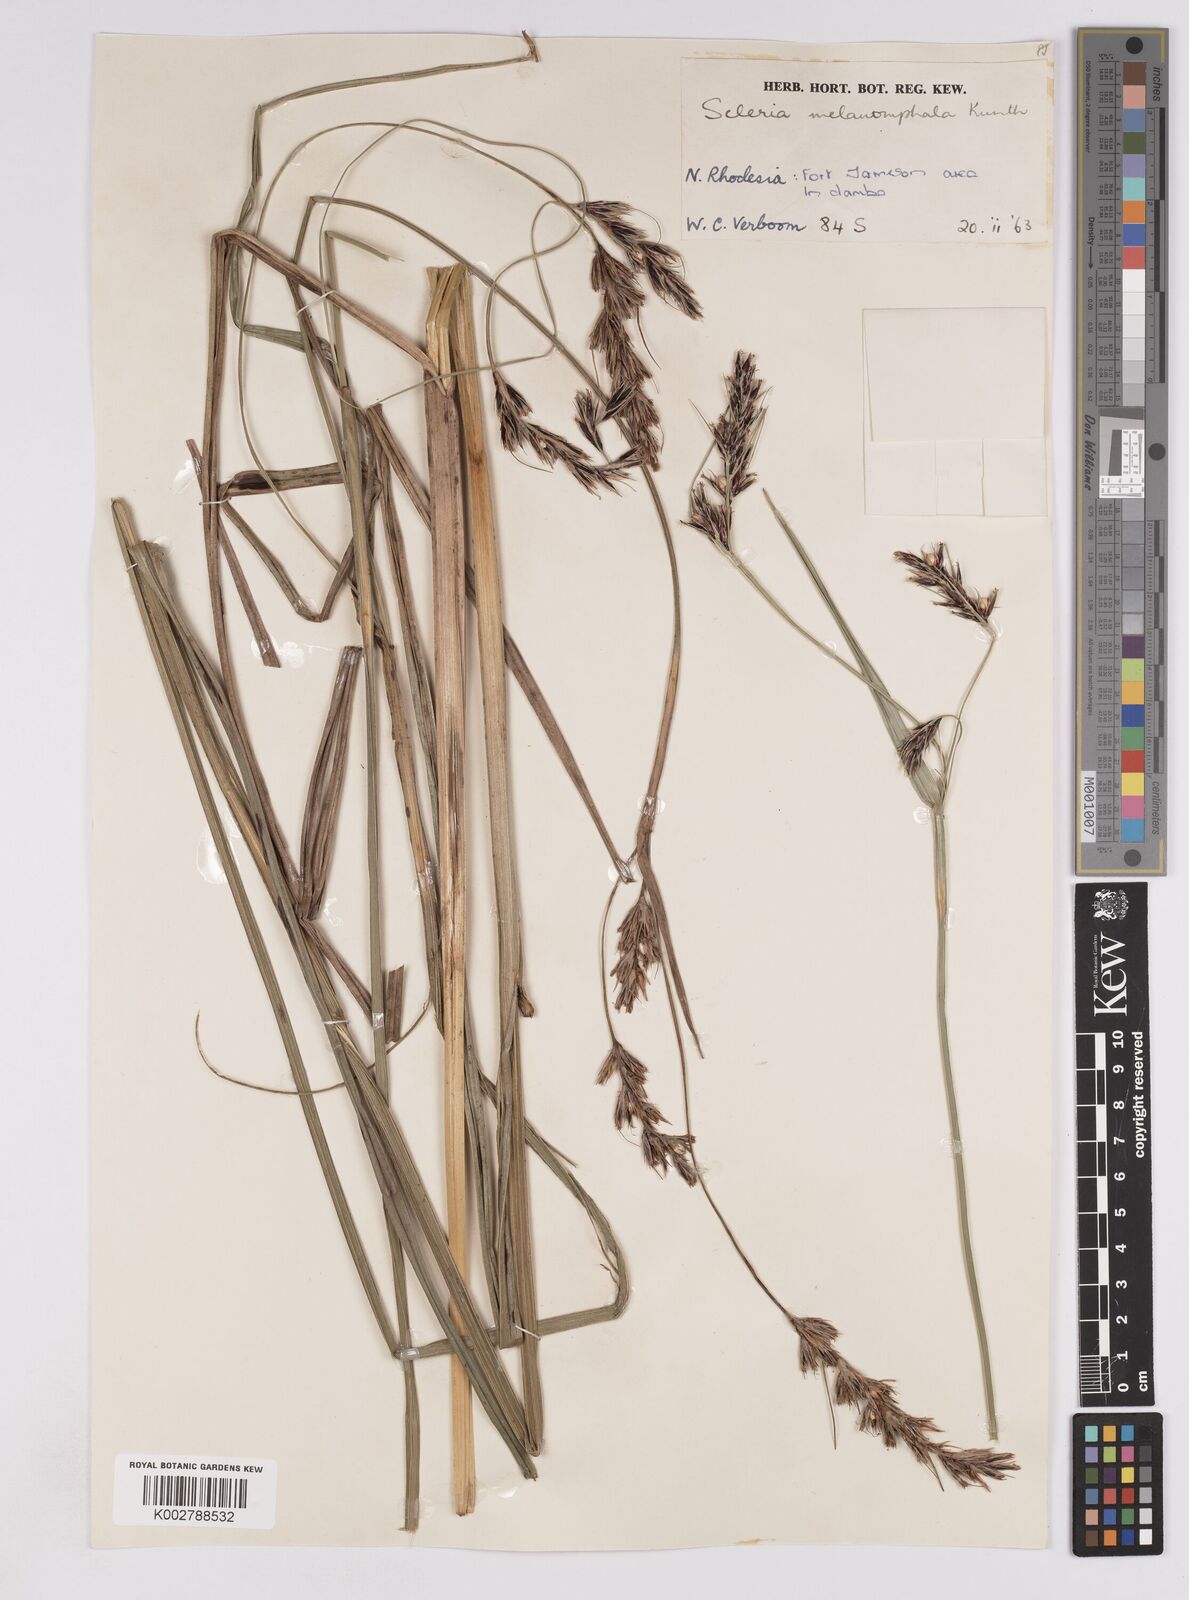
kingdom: Plantae
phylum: Tracheophyta
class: Liliopsida
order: Poales
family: Cyperaceae
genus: Scleria
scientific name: Scleria melanomphala
